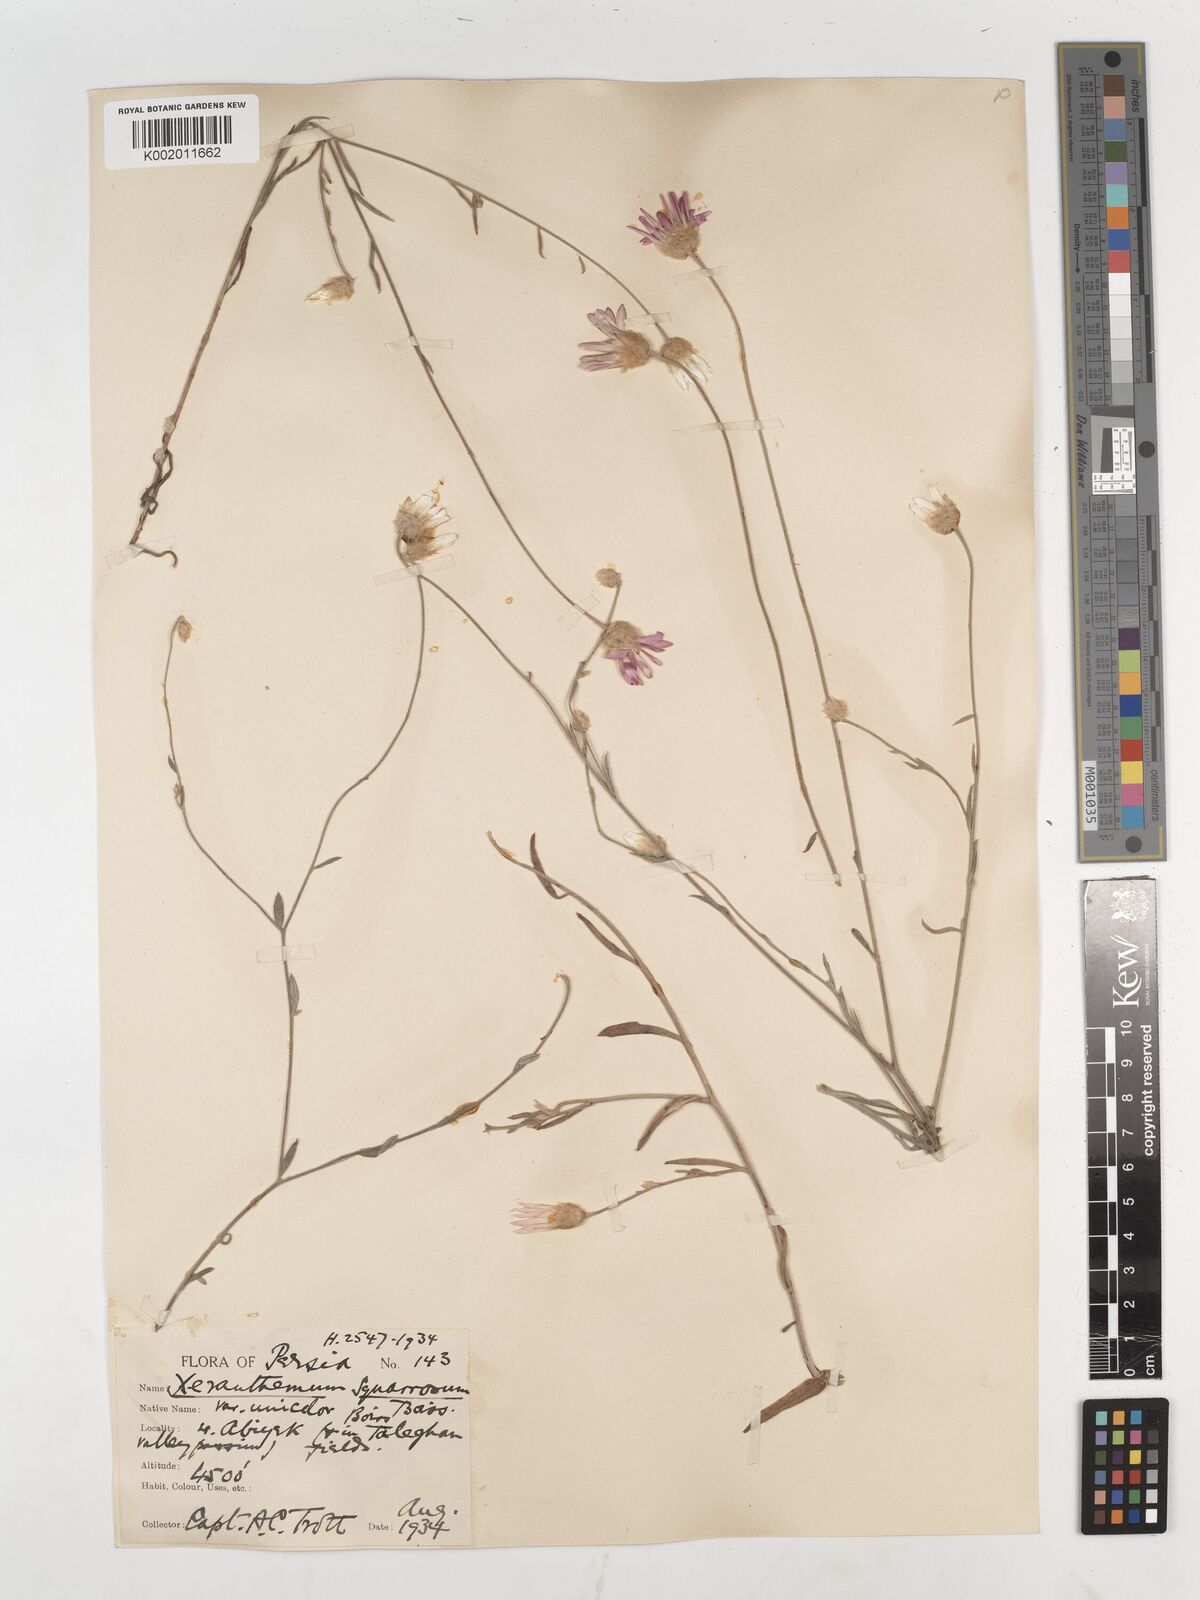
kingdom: Plantae
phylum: Tracheophyta
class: Magnoliopsida
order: Asterales
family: Asteraceae
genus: Xeranthemum
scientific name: Xeranthemum squarrosum
